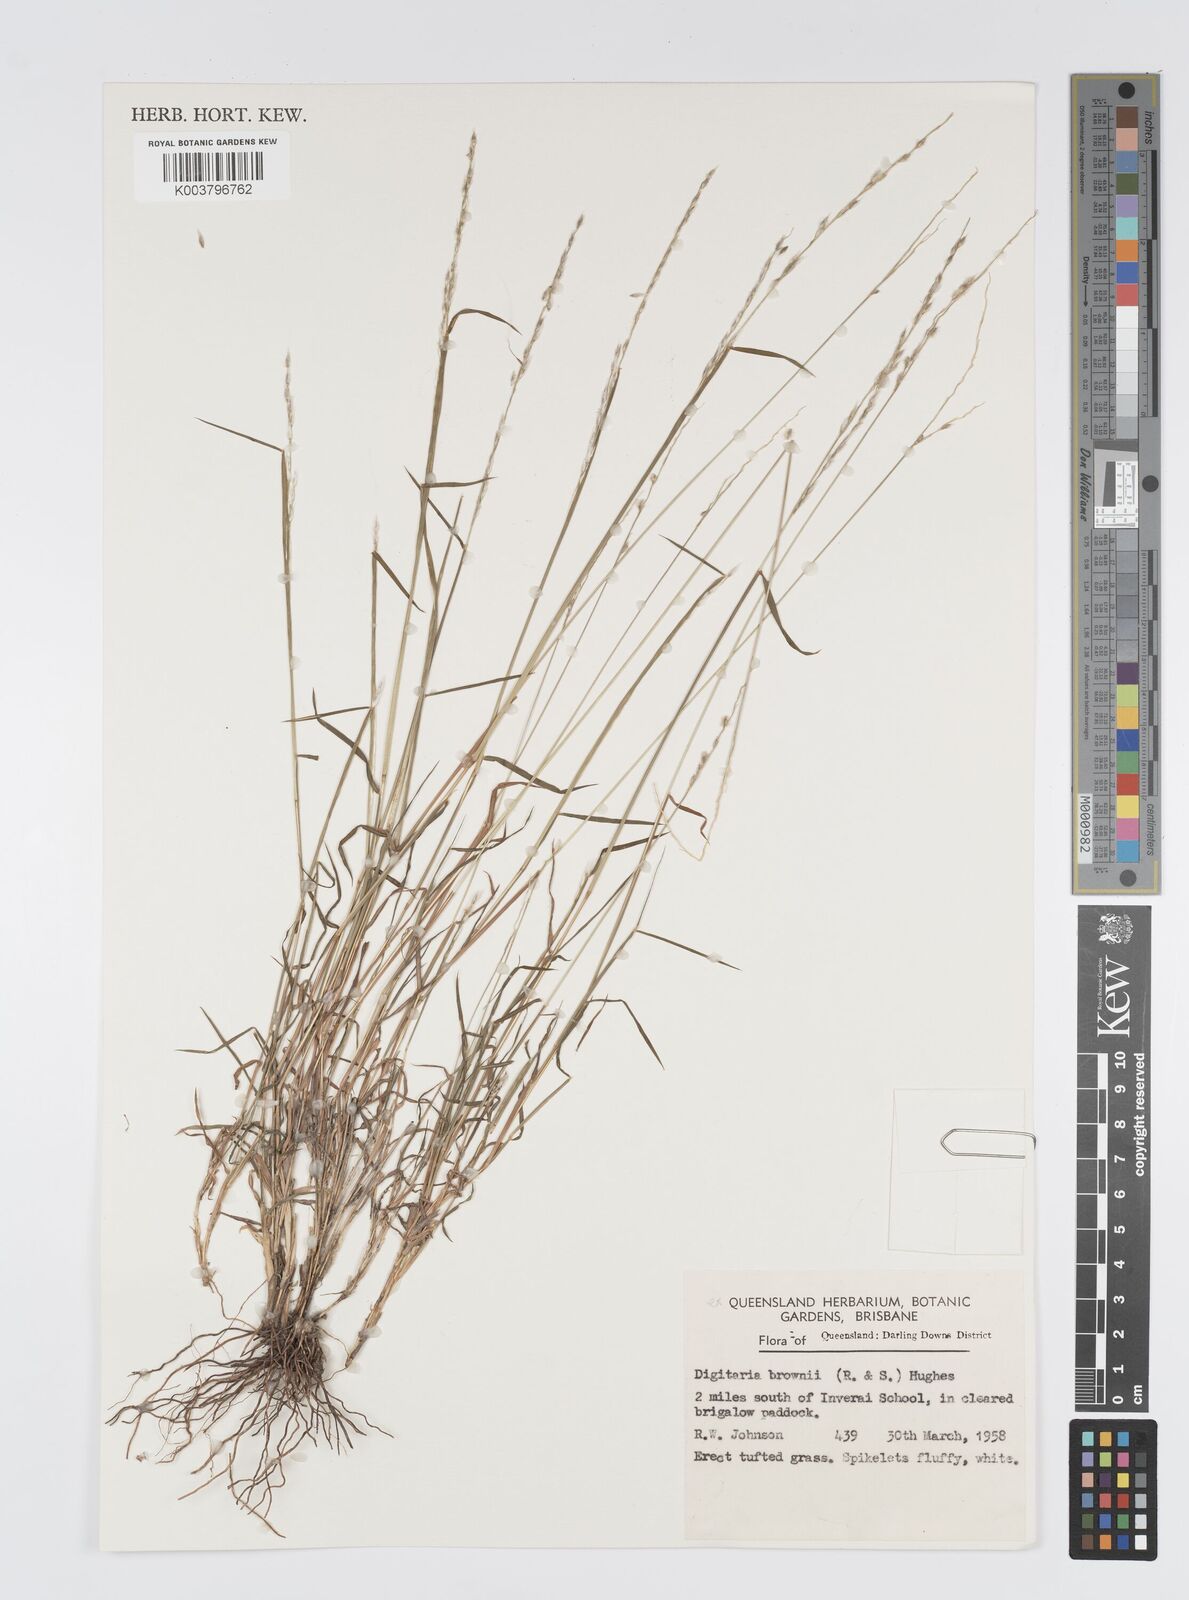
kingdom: Plantae
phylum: Tracheophyta
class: Liliopsida
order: Poales
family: Poaceae
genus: Digitaria
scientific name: Digitaria brownii
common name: Cotton grass
